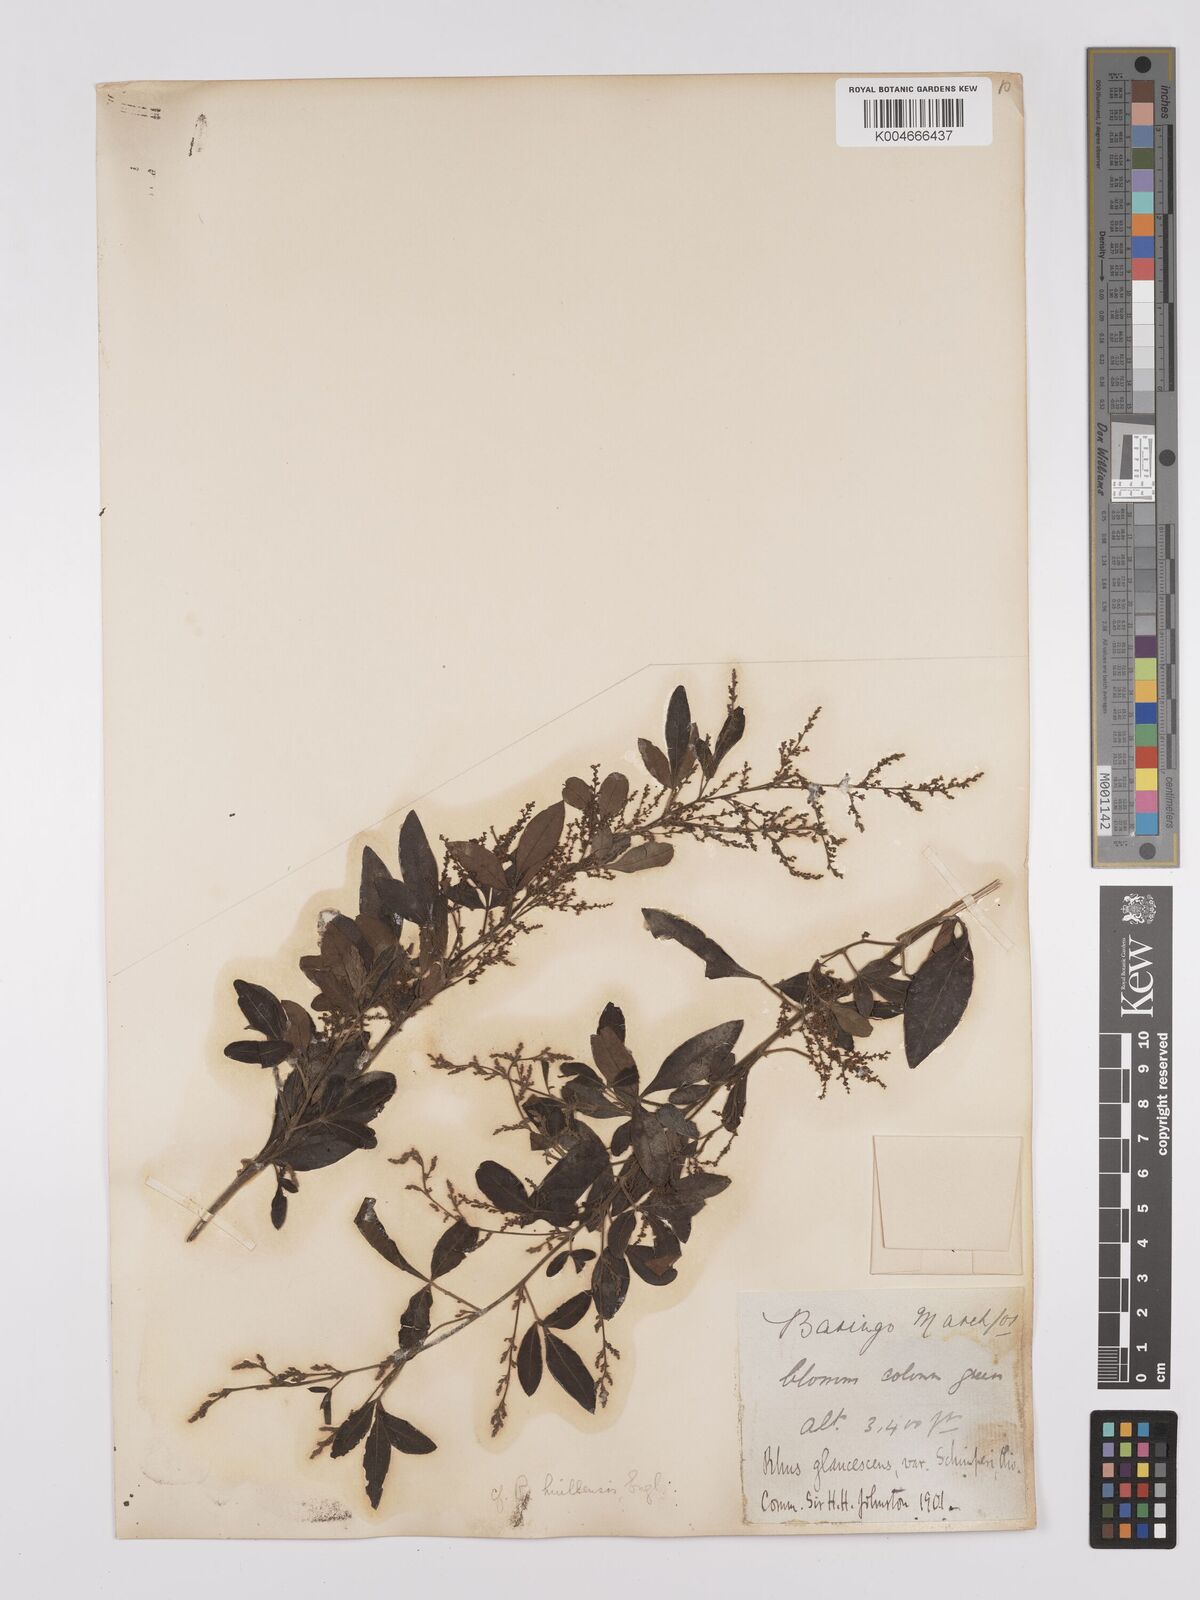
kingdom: Plantae
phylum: Tracheophyta
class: Magnoliopsida
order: Sapindales
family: Anacardiaceae
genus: Searsia
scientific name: Searsia quartiniana
